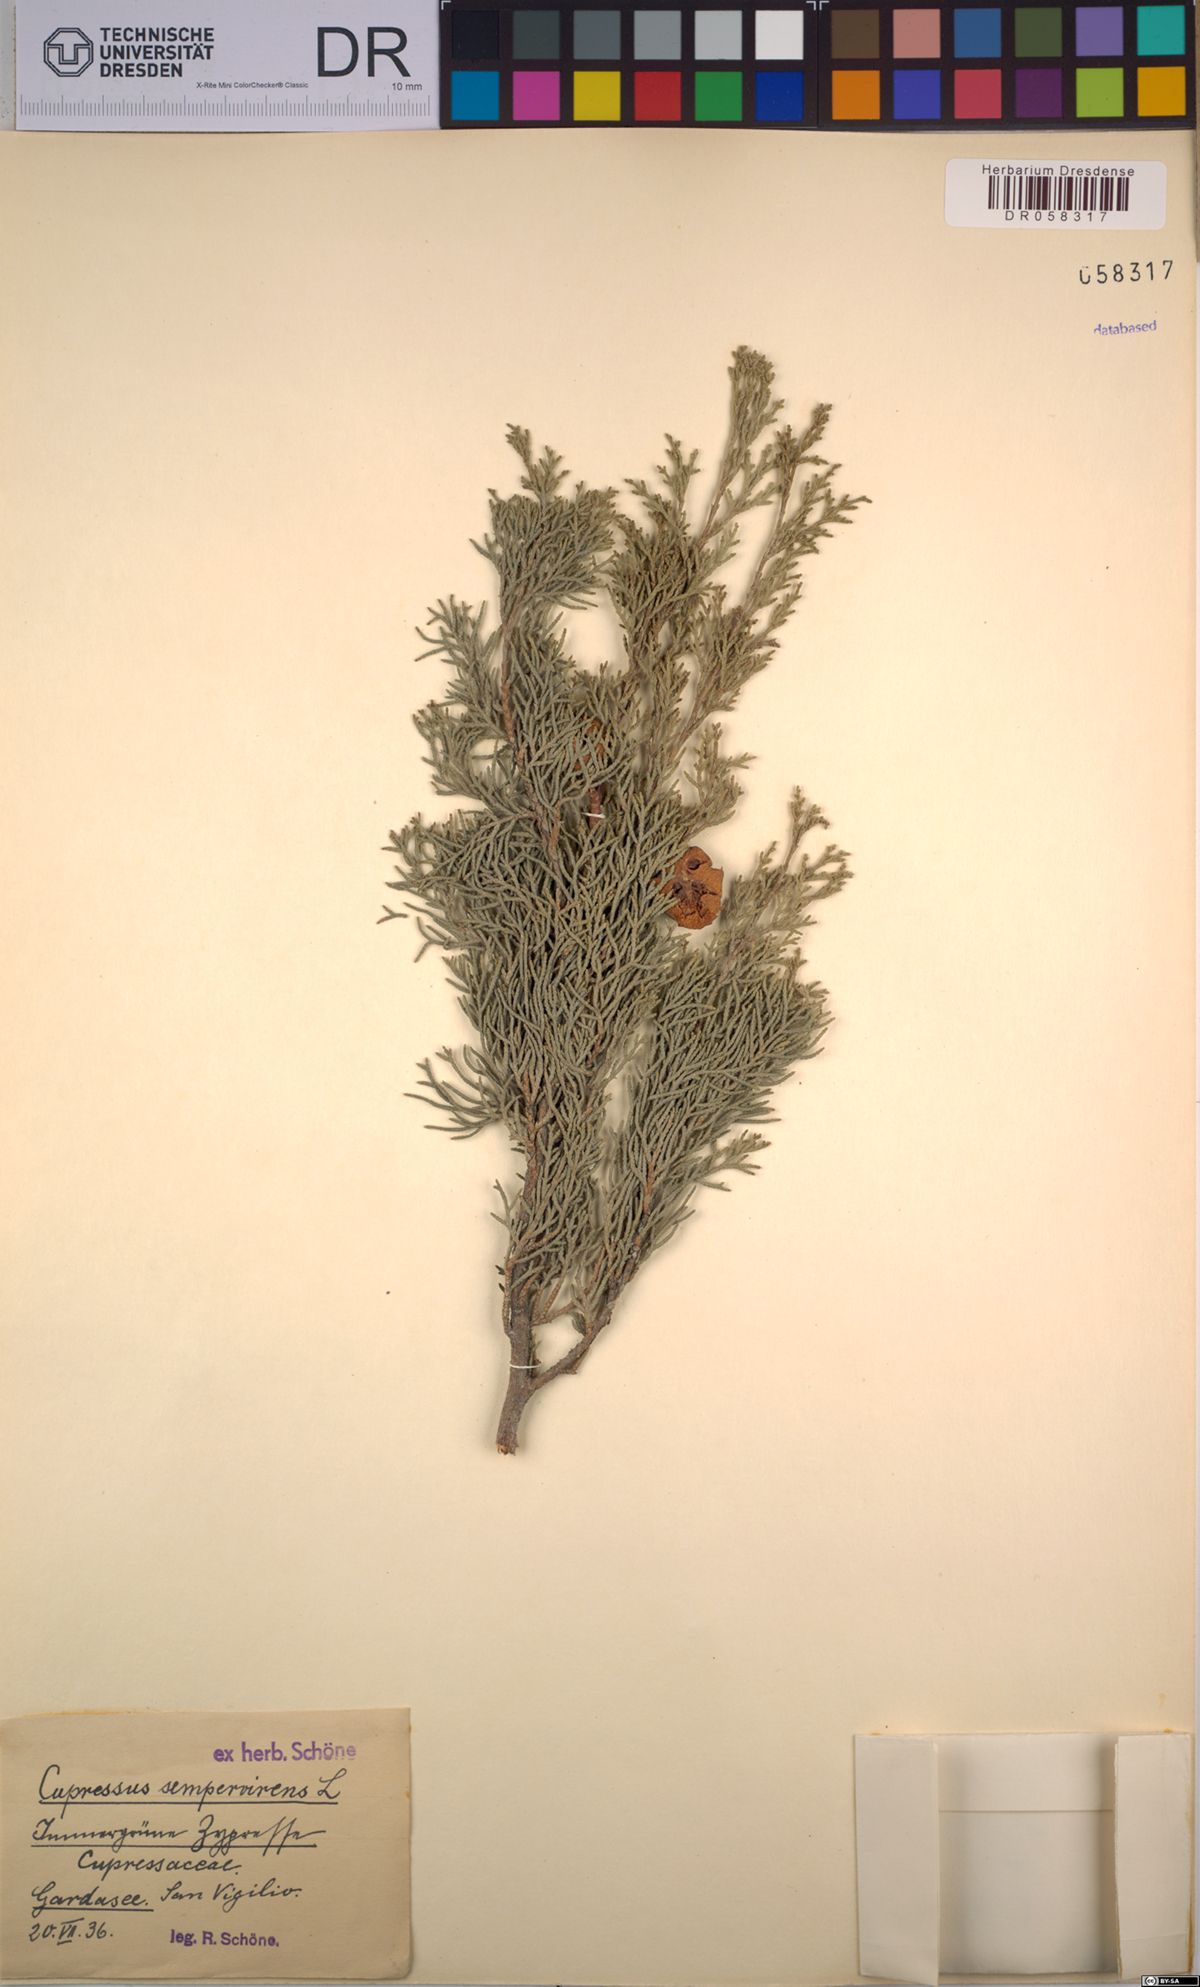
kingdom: Plantae
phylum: Tracheophyta
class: Pinopsida
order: Pinales
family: Cupressaceae
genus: Cupressus
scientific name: Cupressus sempervirens
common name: Italian cypress
